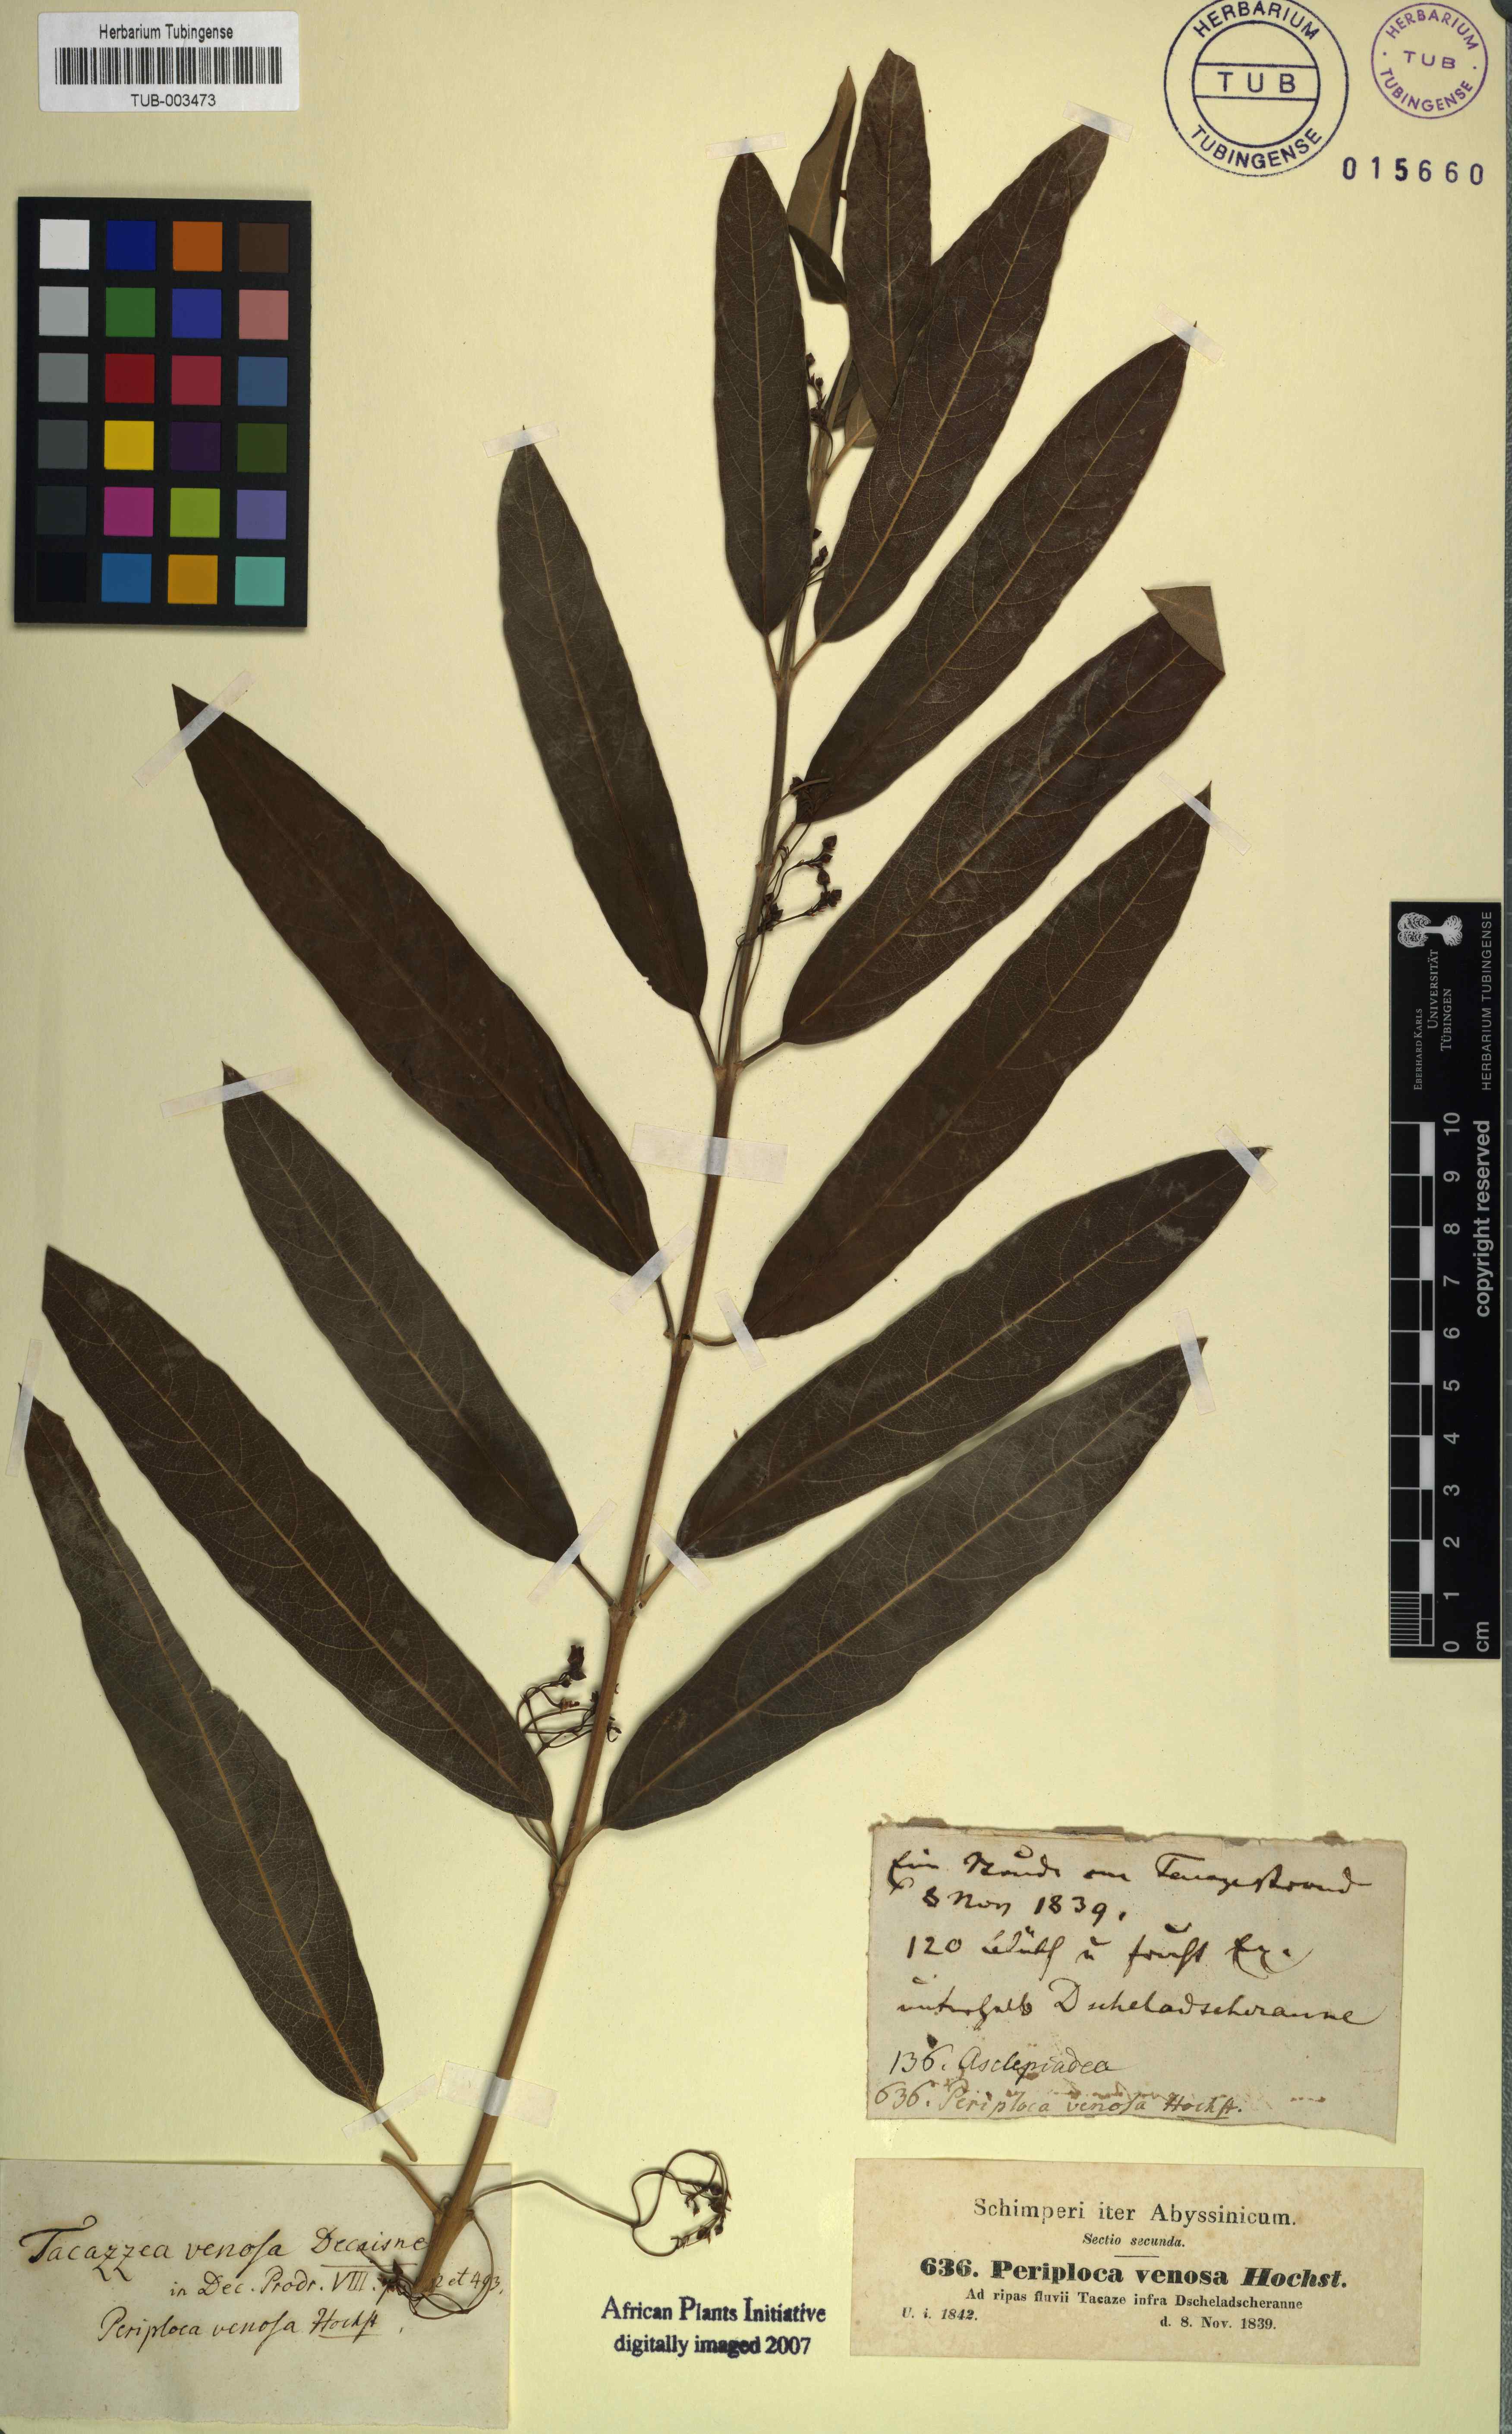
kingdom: Plantae
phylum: Tracheophyta
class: Magnoliopsida
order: Gentianales
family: Apocynaceae
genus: Tacazzea
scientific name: Tacazzea venosa
